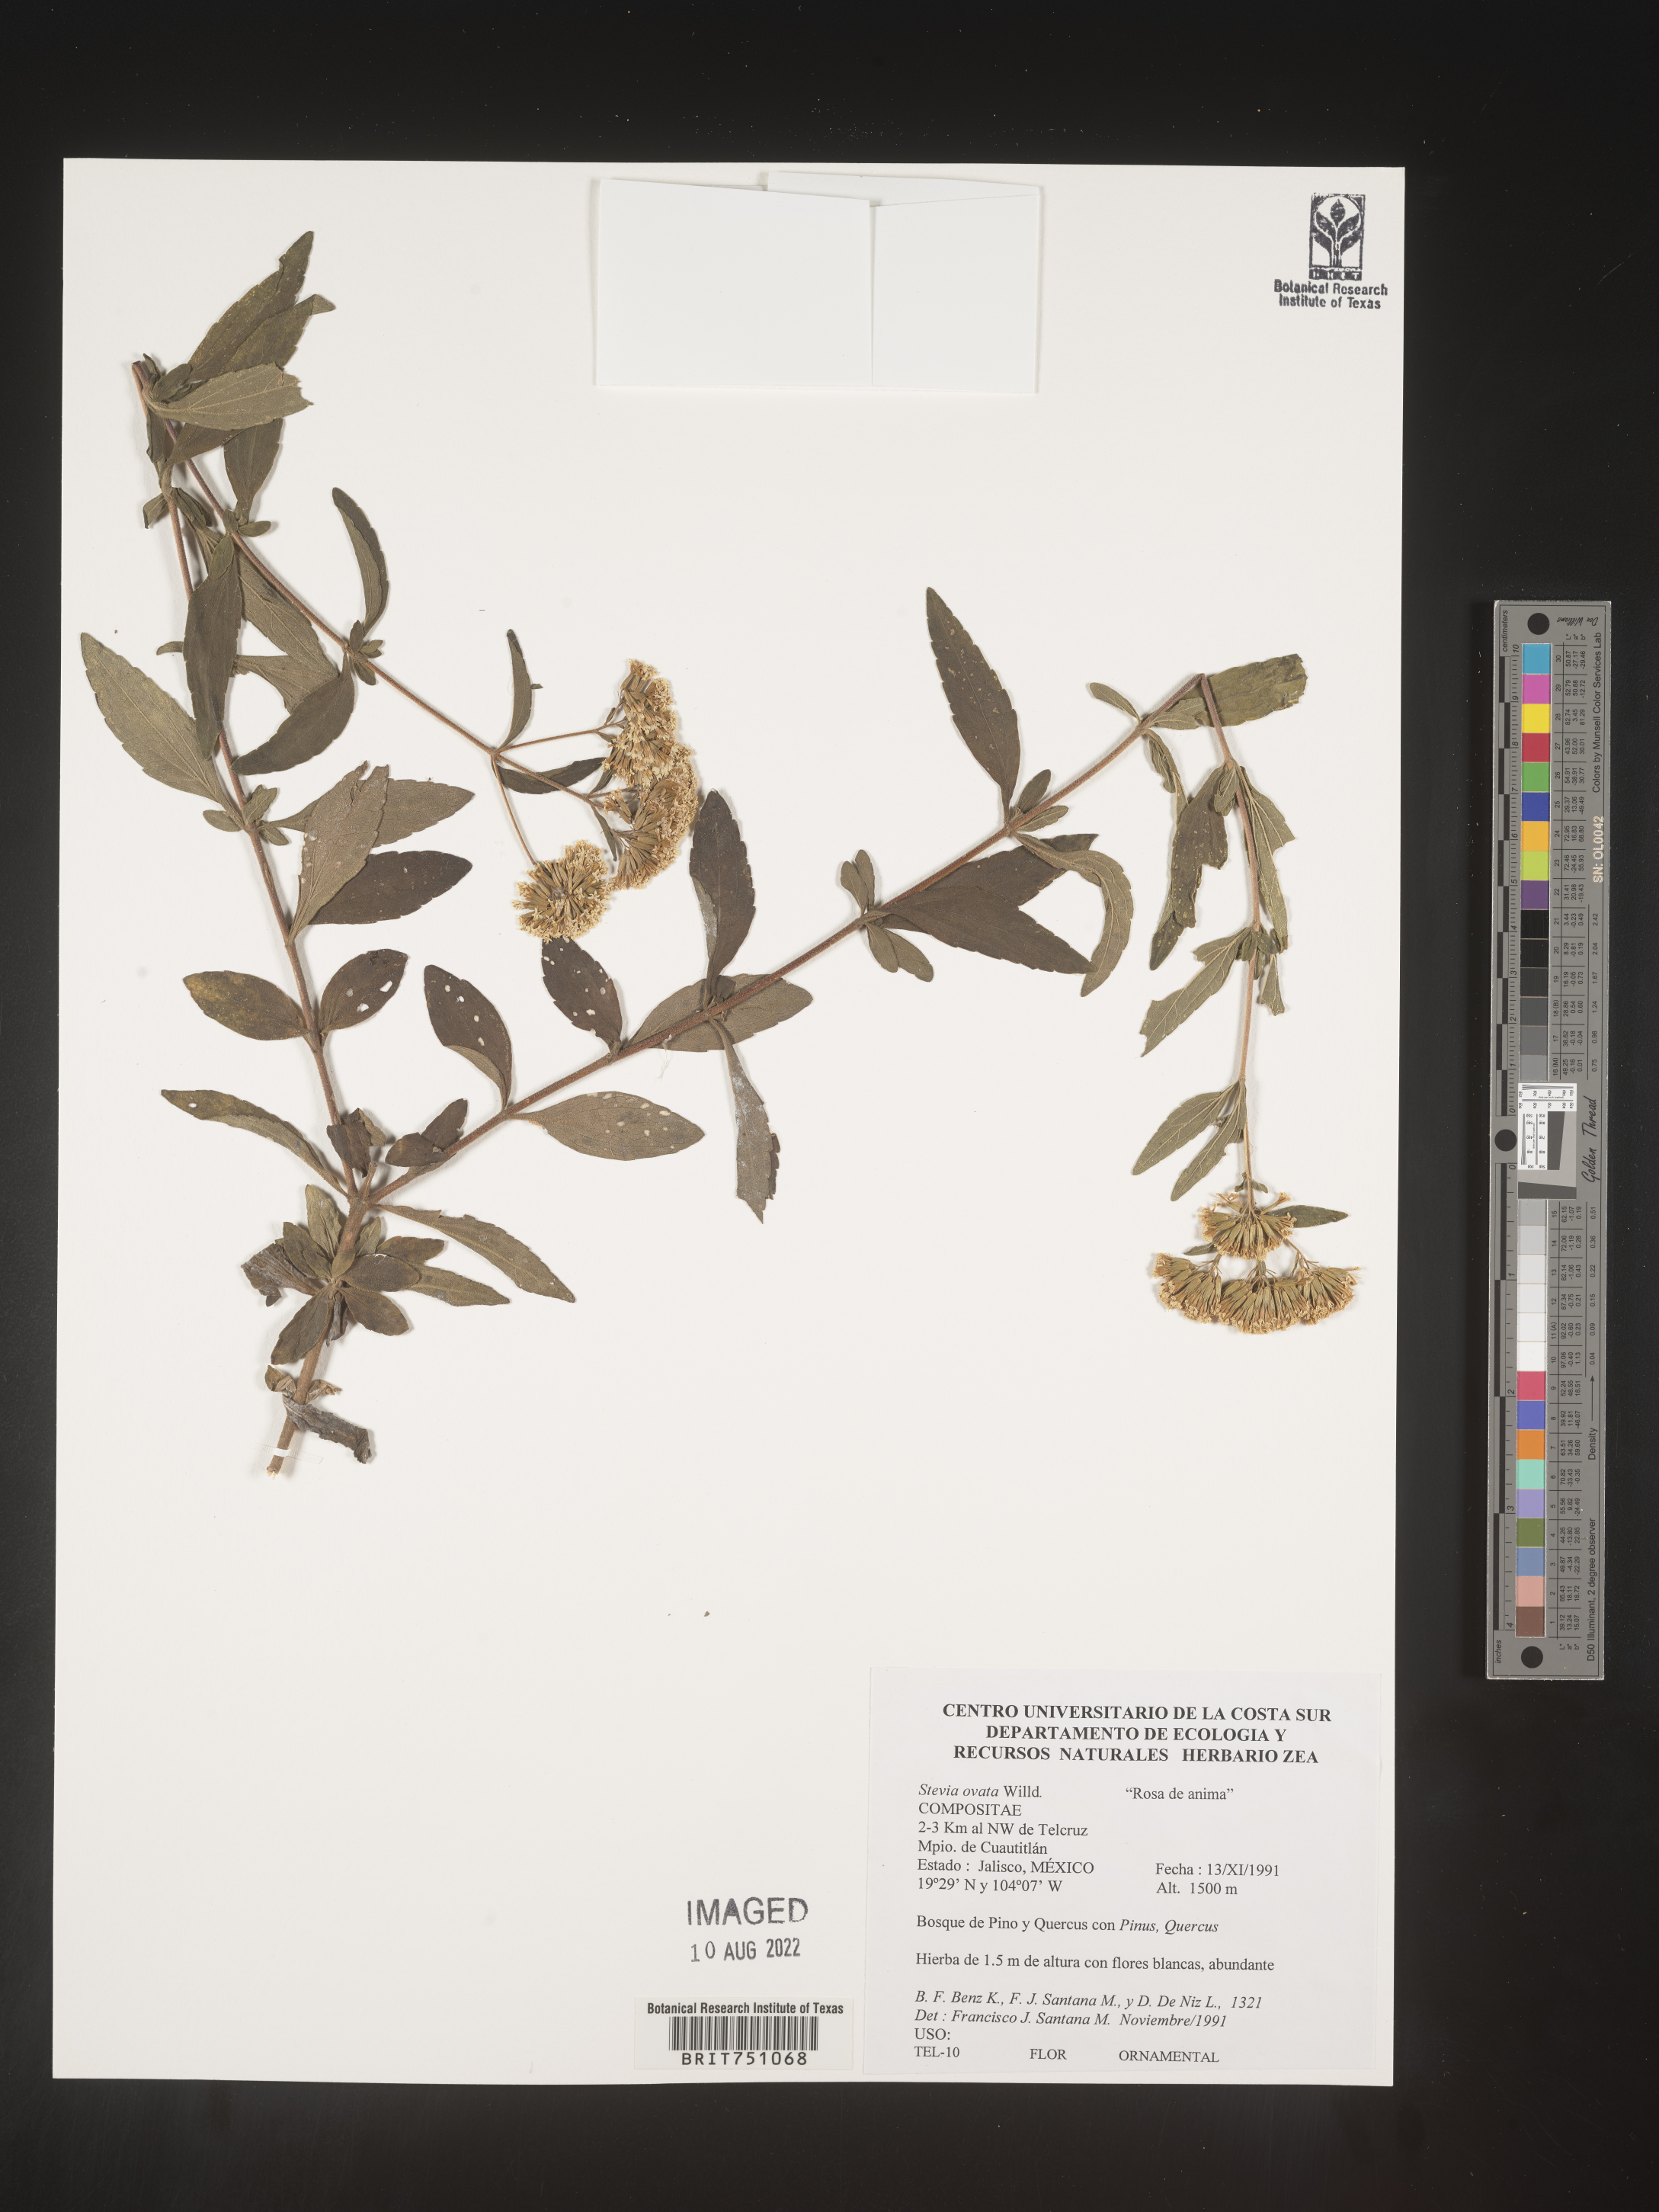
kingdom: Plantae
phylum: Tracheophyta
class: Magnoliopsida
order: Asterales
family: Asteraceae
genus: Stevia
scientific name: Stevia ovata
